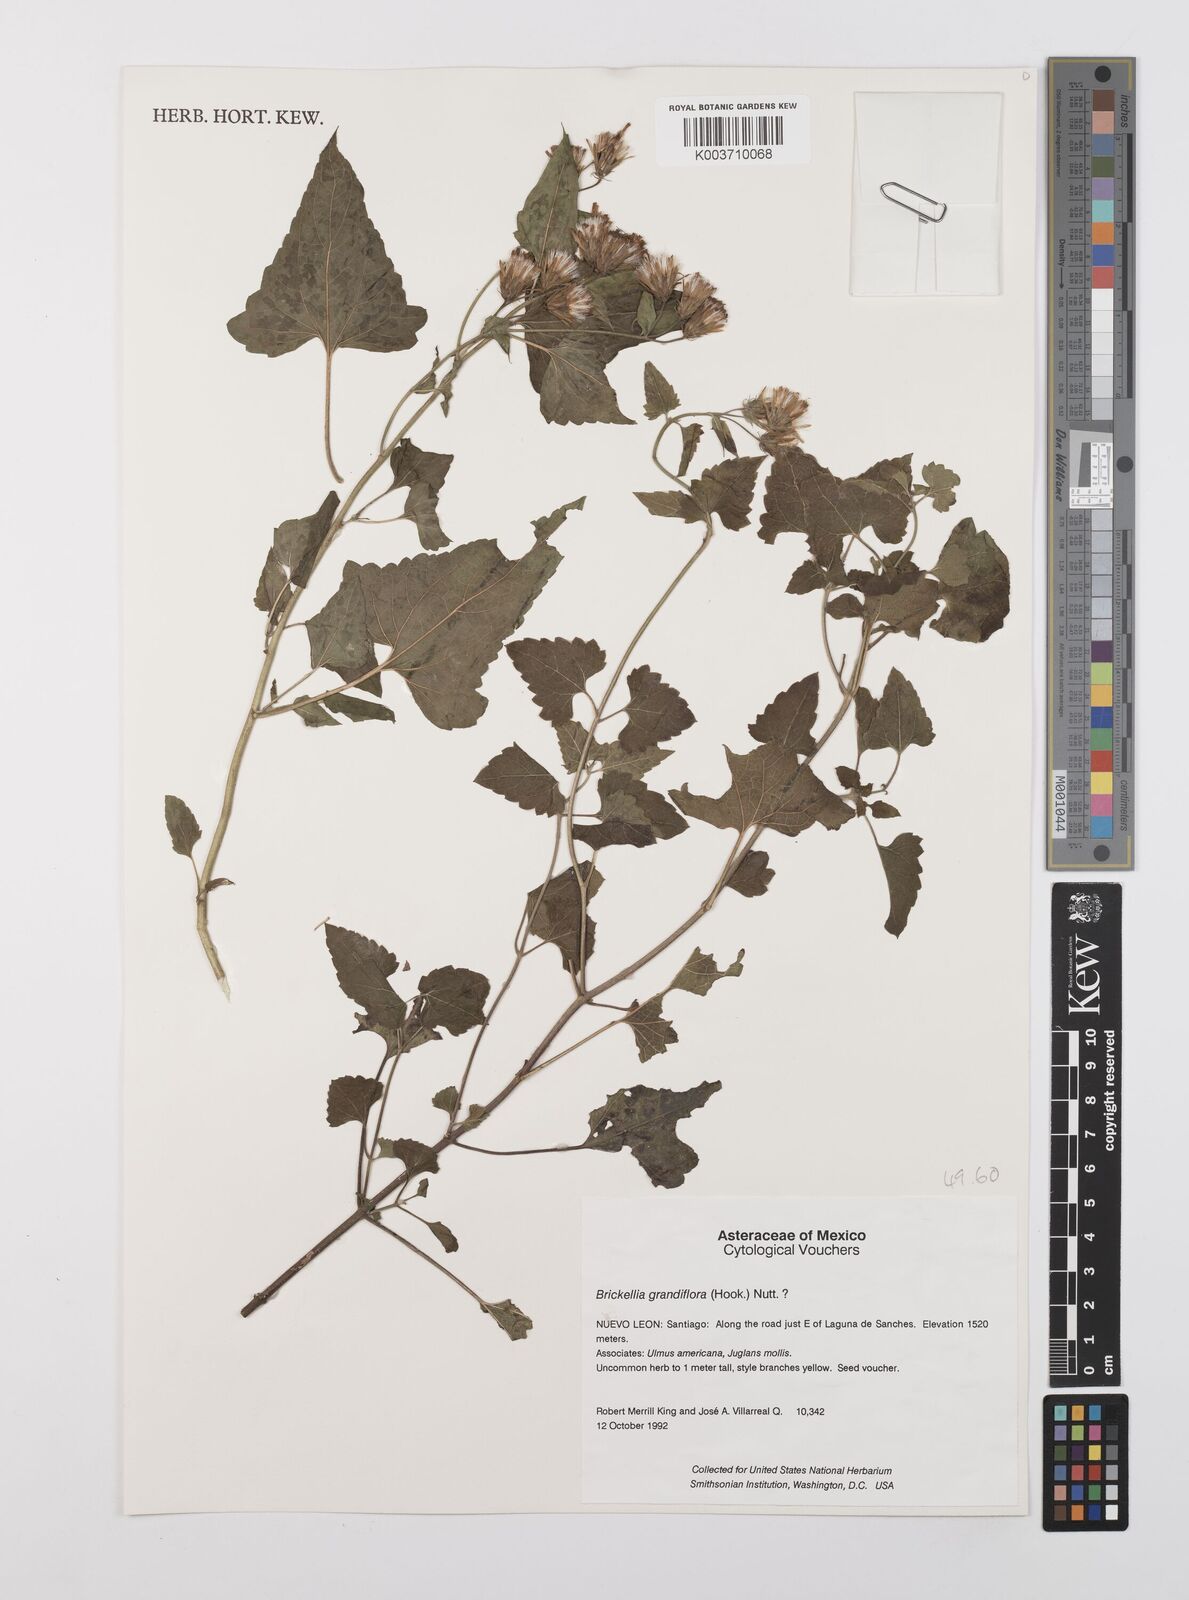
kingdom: Plantae
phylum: Tracheophyta
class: Magnoliopsida
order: Asterales
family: Asteraceae
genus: Brickellia
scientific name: Brickellia lemmonii
